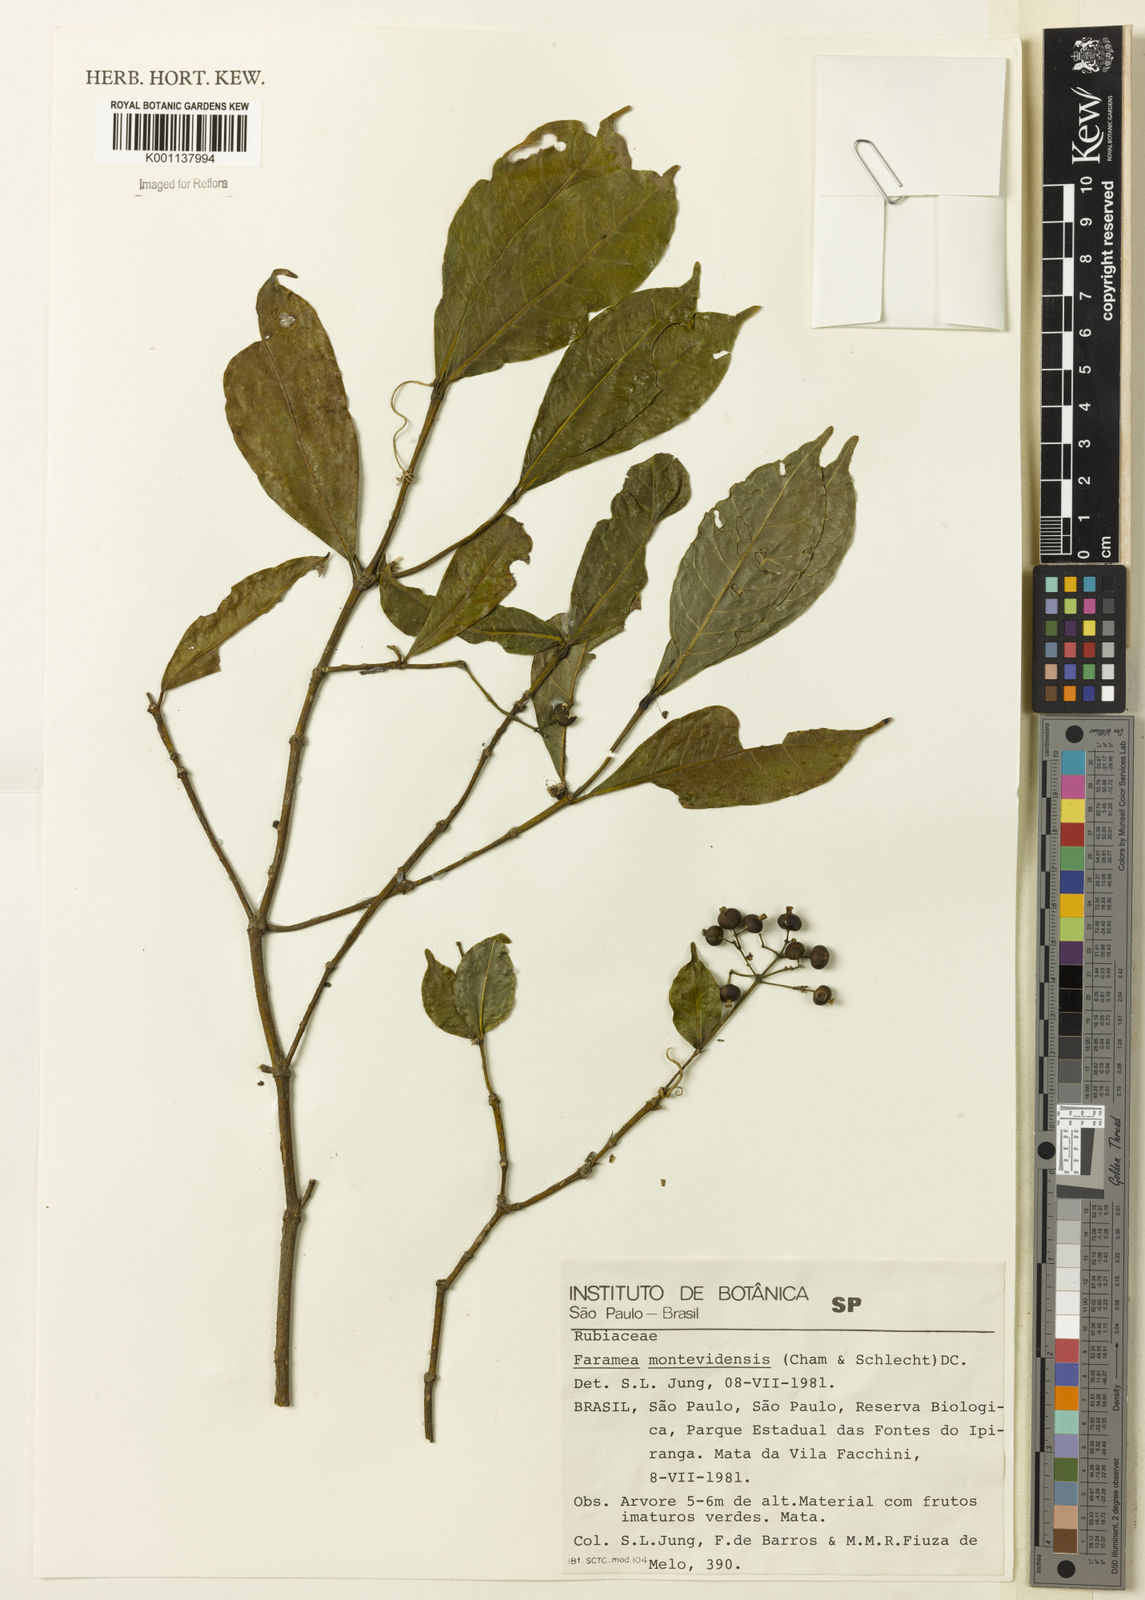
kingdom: Plantae
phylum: Tracheophyta
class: Magnoliopsida
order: Gentianales
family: Rubiaceae
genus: Faramea
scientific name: Faramea montevidensis
